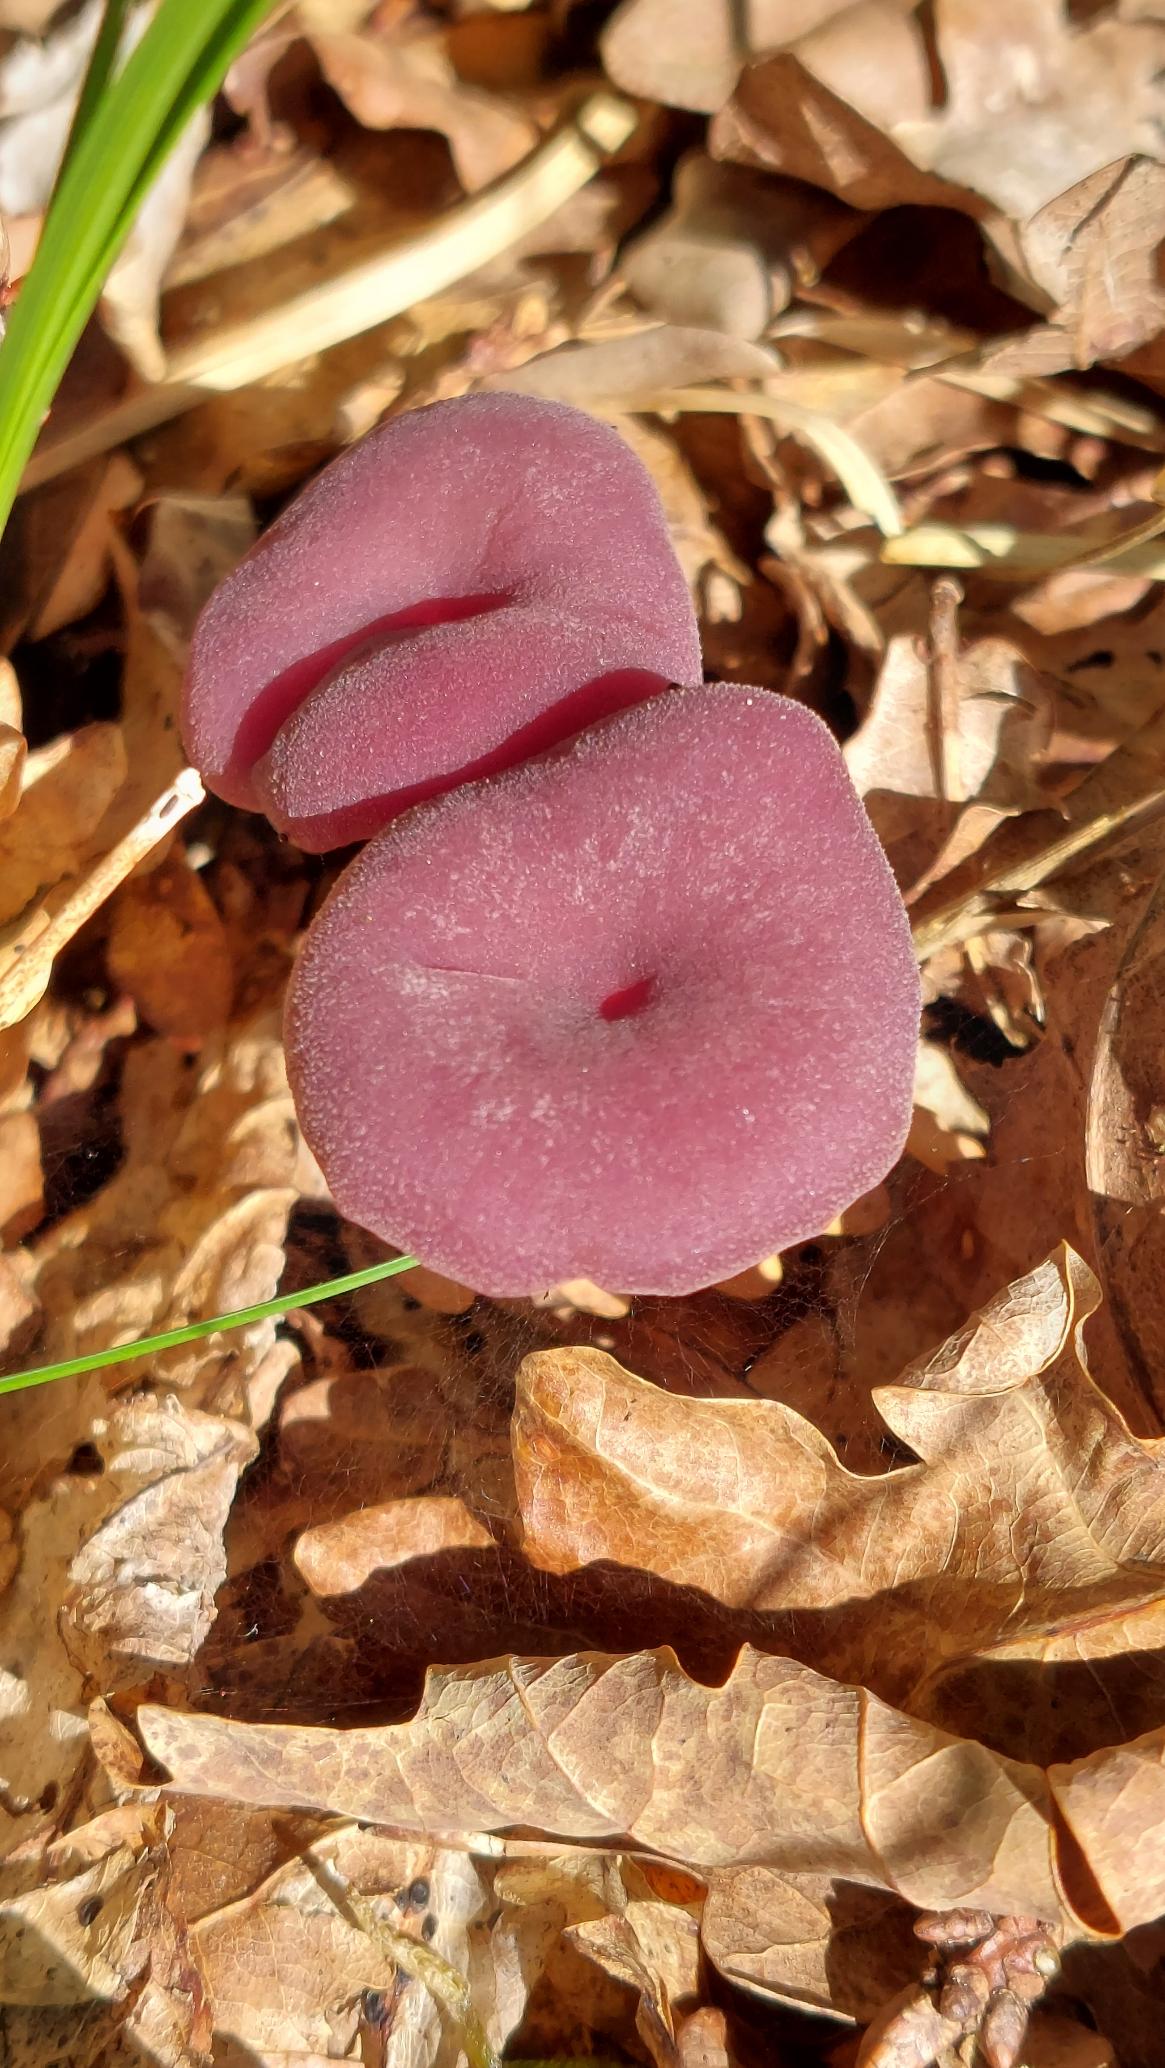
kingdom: Fungi
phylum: Basidiomycota
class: Agaricomycetes
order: Agaricales
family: Hydnangiaceae
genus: Laccaria
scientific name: Laccaria amethystina
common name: Violet ametysthat
